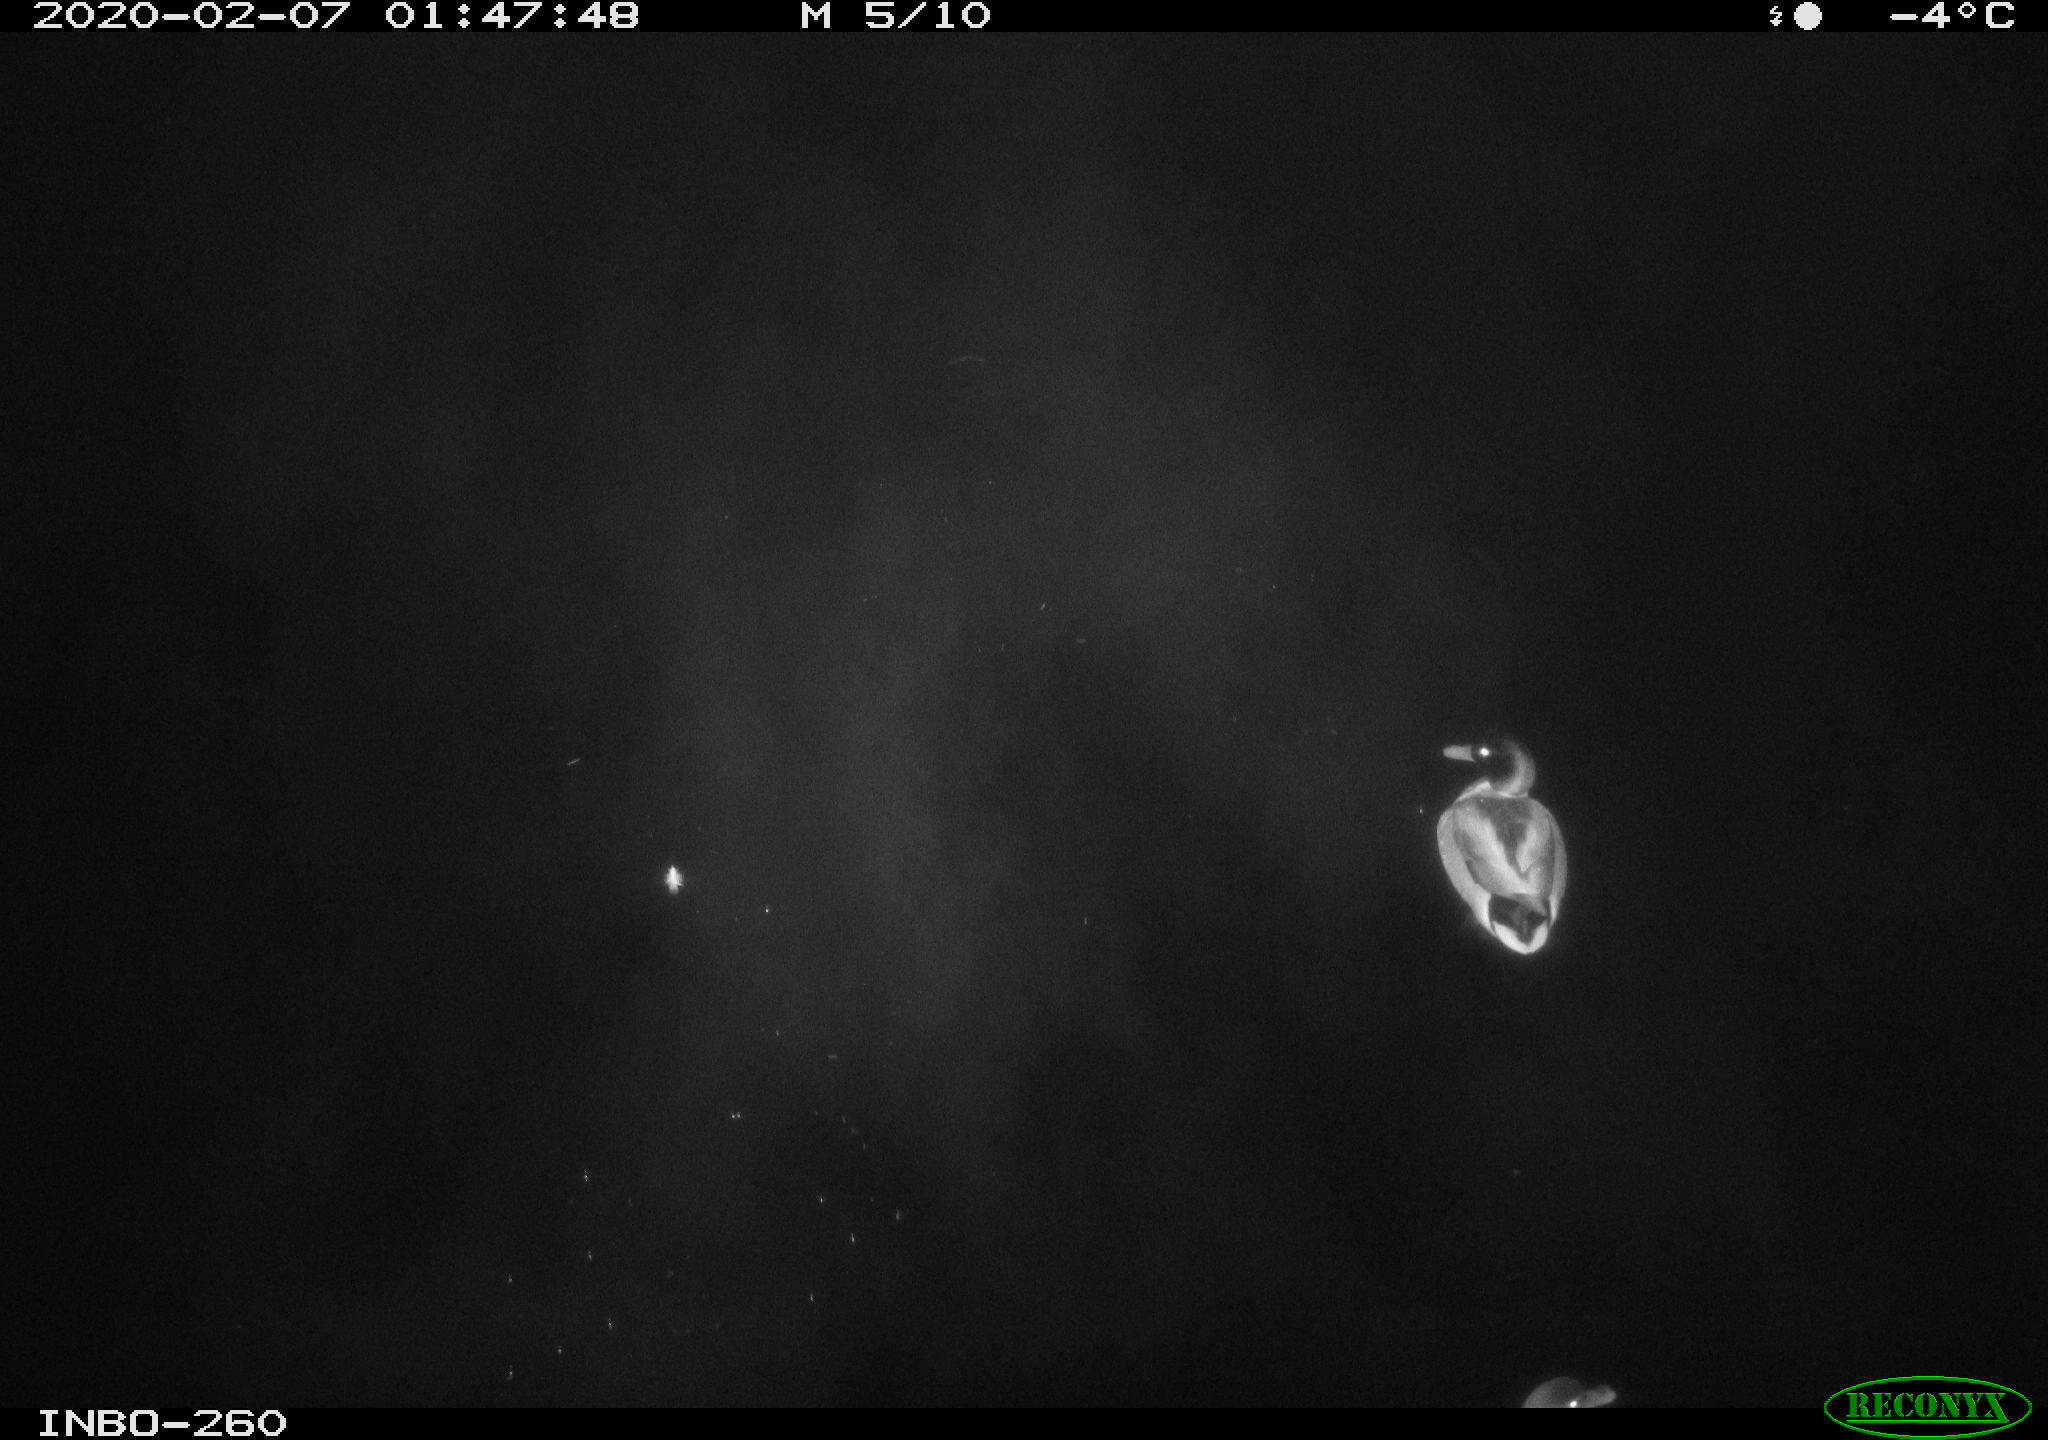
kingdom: Animalia
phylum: Chordata
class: Aves
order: Anseriformes
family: Anatidae
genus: Anas
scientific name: Anas platyrhynchos
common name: Mallard
